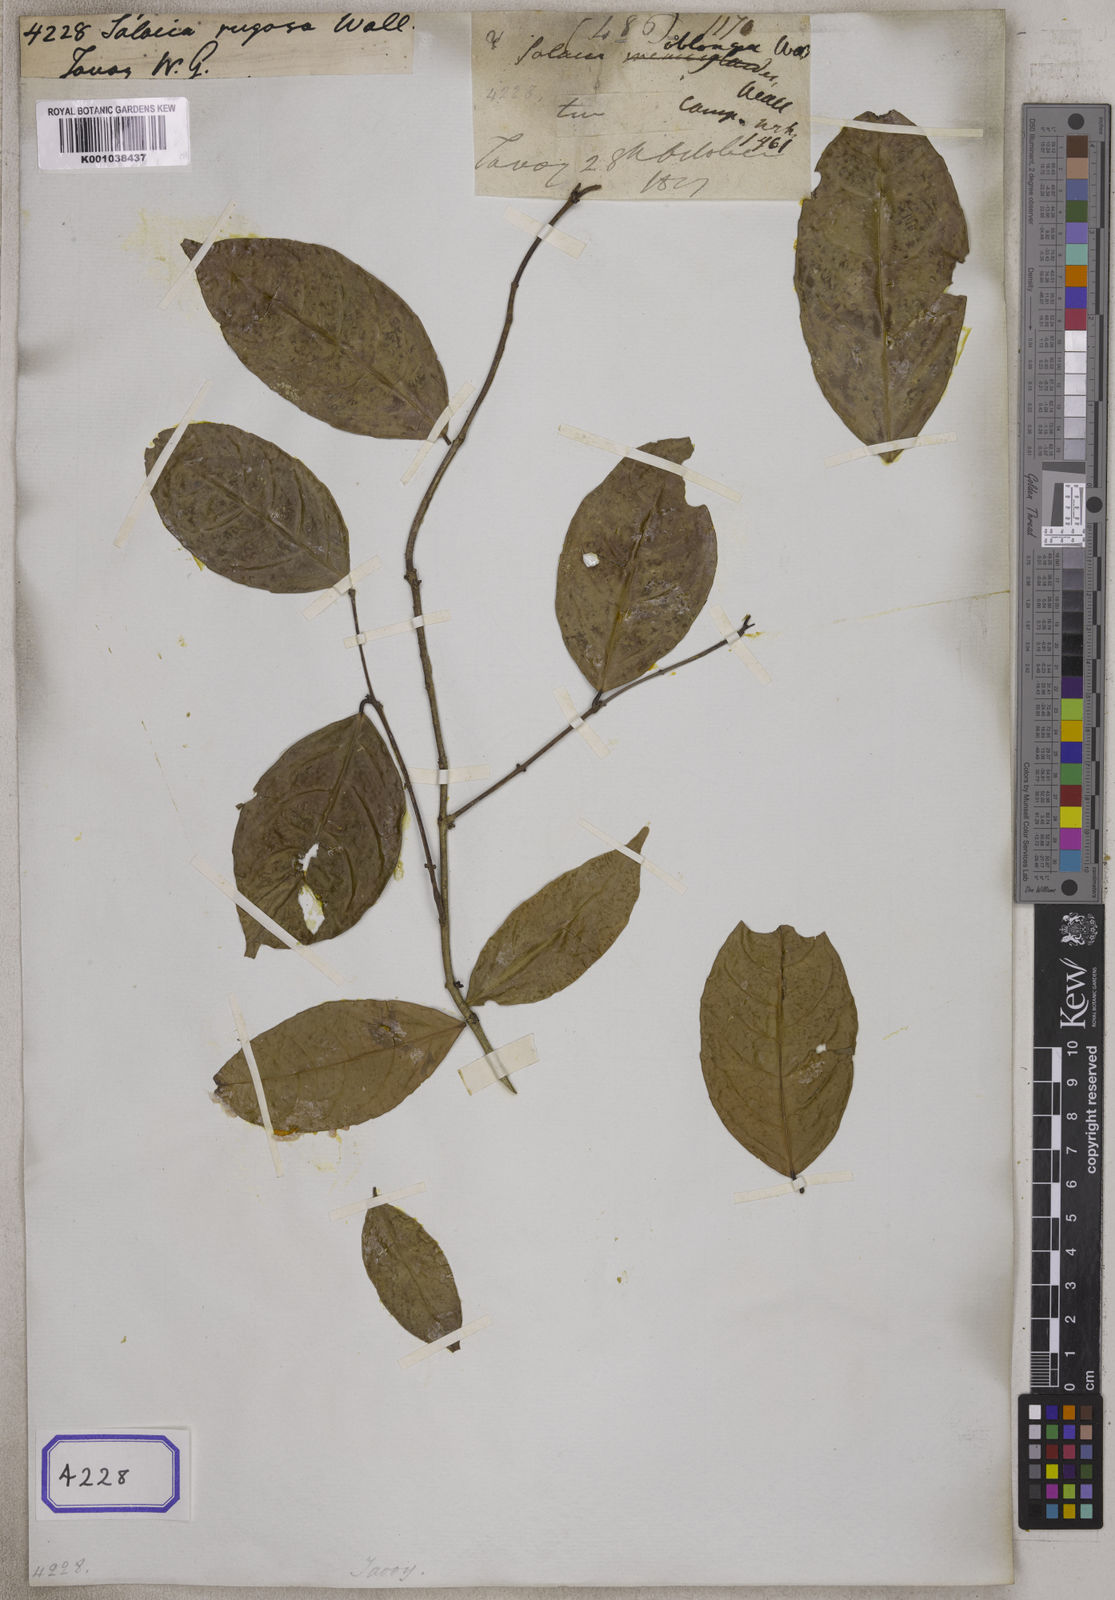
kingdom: Plantae
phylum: Tracheophyta
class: Magnoliopsida
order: Celastrales
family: Celastraceae
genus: Salacia
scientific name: Salacia verrucosa
